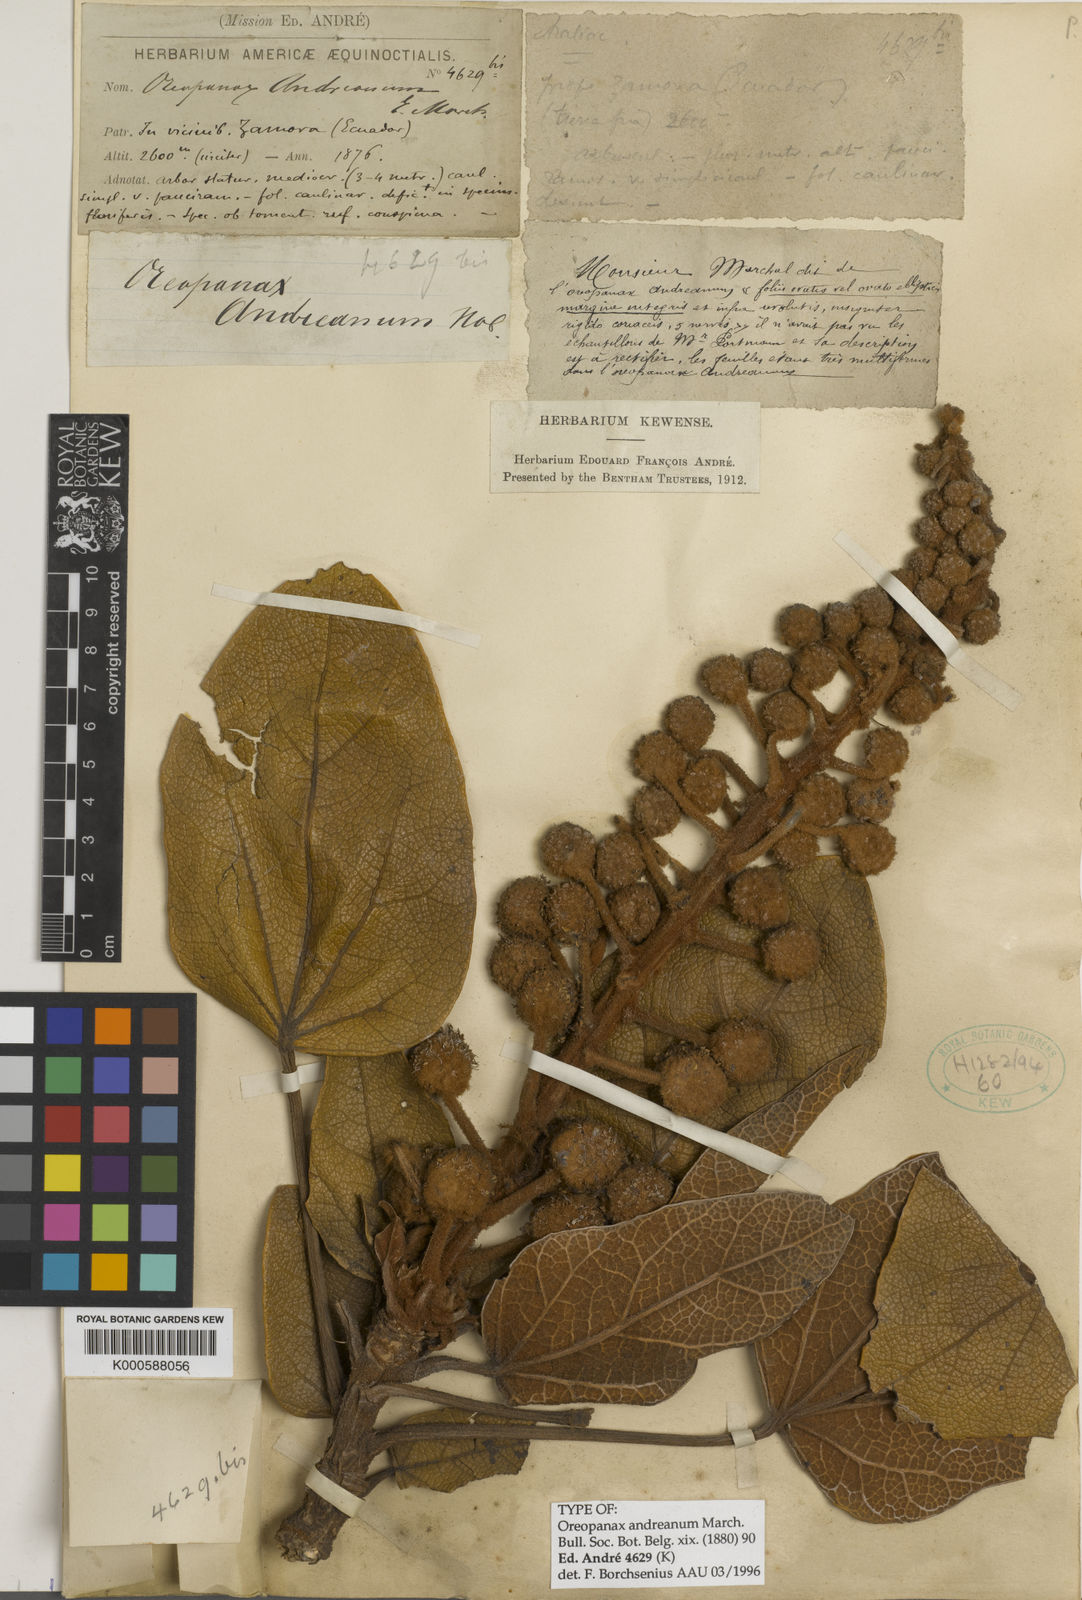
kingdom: Plantae
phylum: Tracheophyta
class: Magnoliopsida
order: Apiales
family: Araliaceae
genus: Oreopanax
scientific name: Oreopanax andreanus
